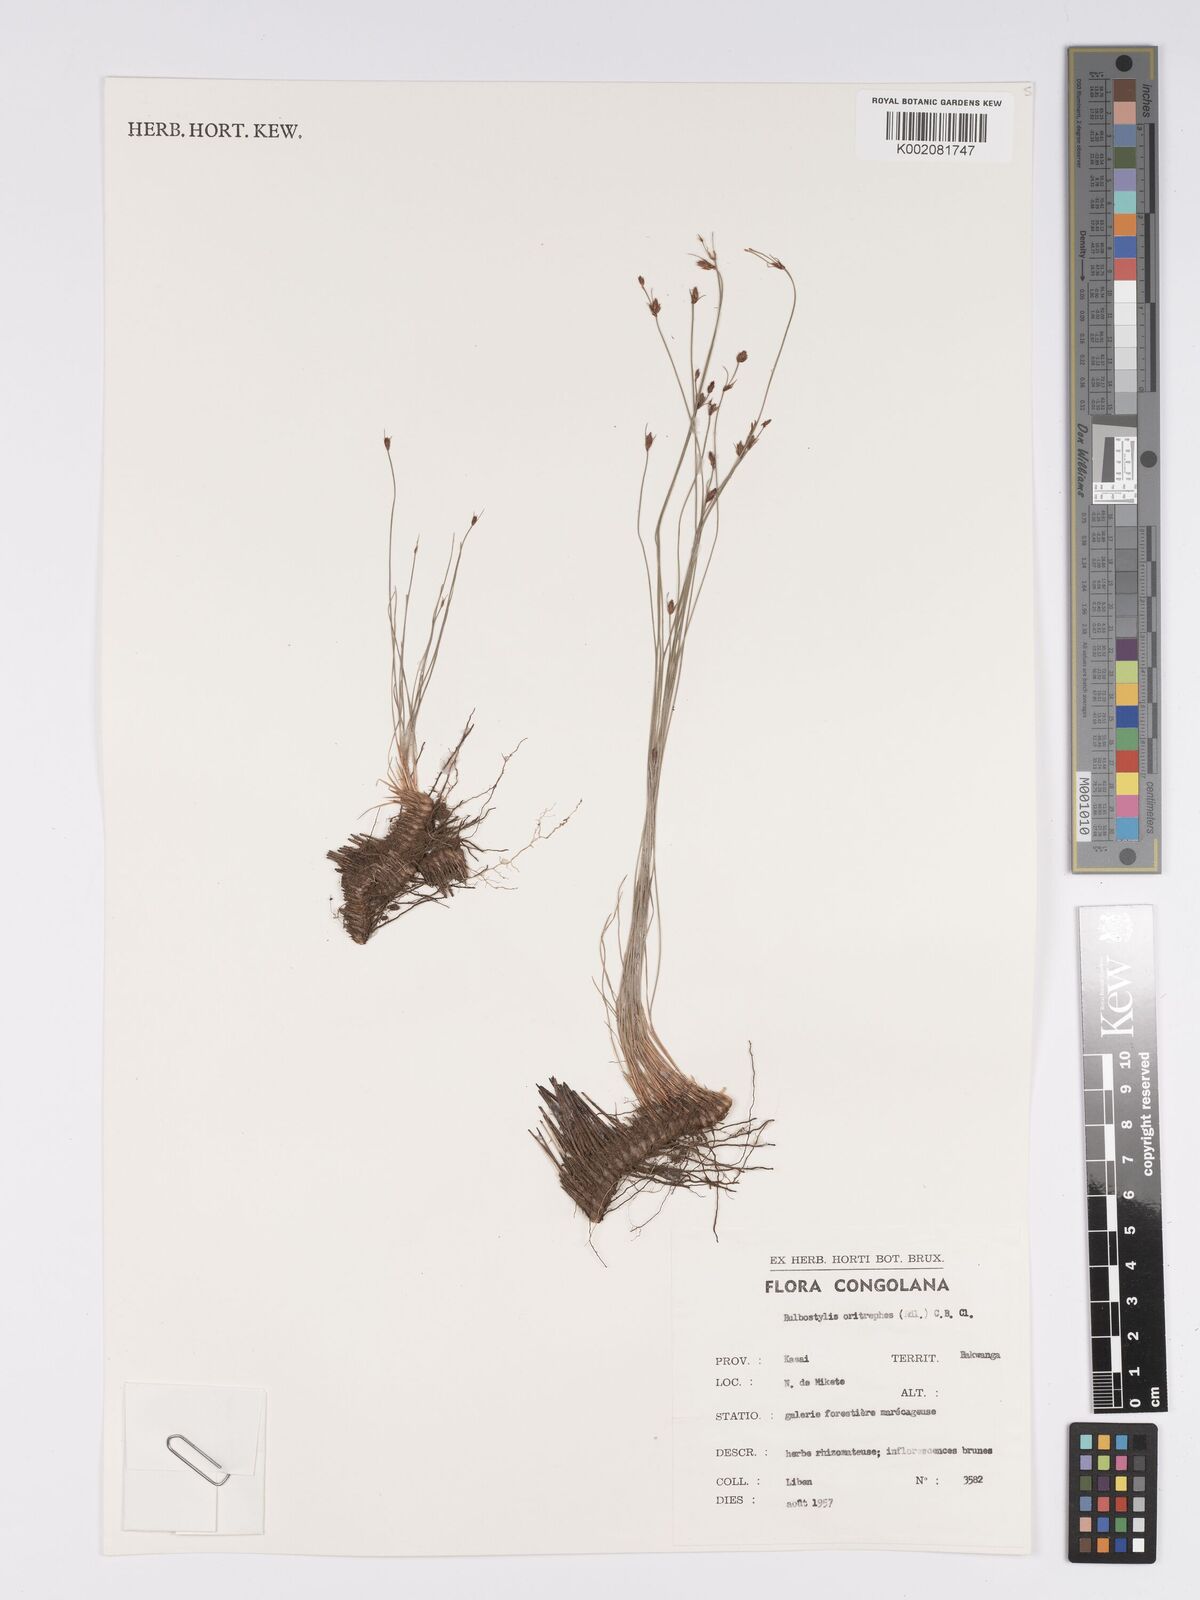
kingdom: Plantae
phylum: Tracheophyta
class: Liliopsida
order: Poales
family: Cyperaceae
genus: Bulbostylis
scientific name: Bulbostylis oritrephes
